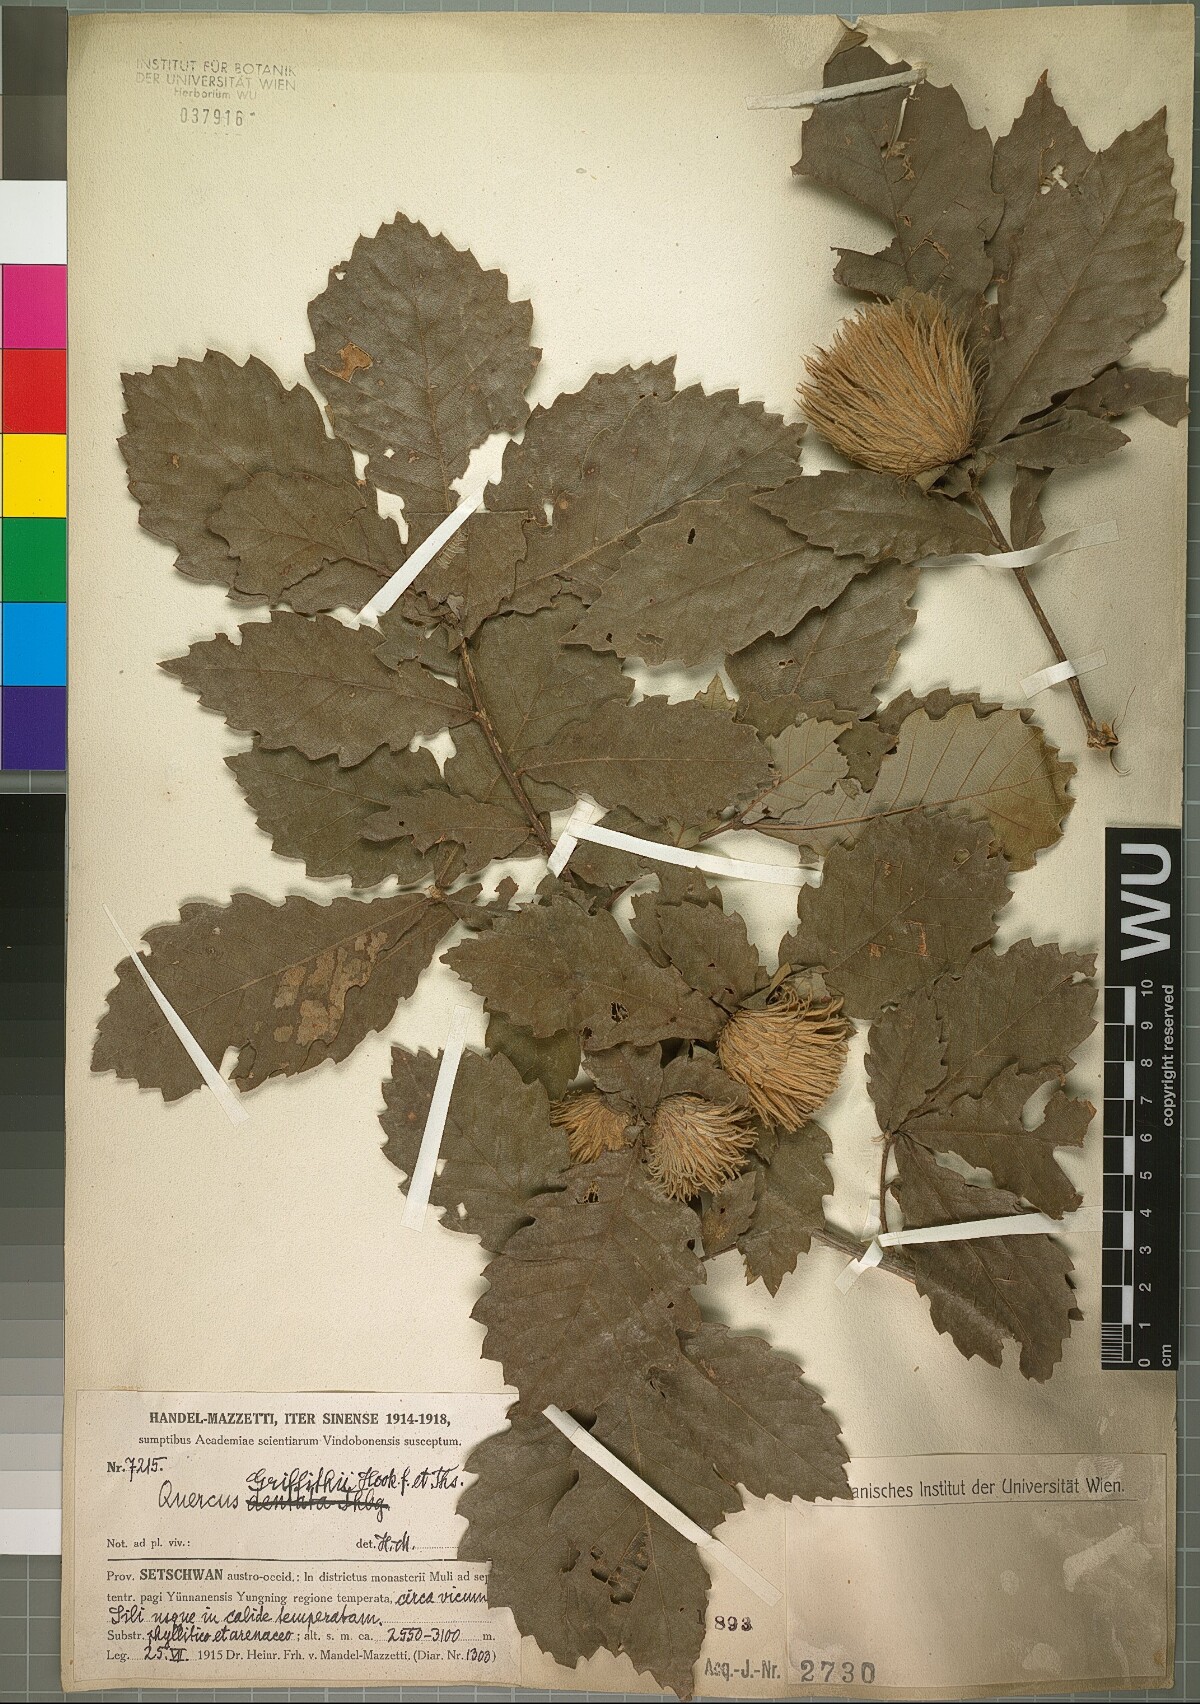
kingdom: Plantae
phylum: Tracheophyta
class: Magnoliopsida
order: Fagales
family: Fagaceae
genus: Quercus
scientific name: Quercus griffithii
